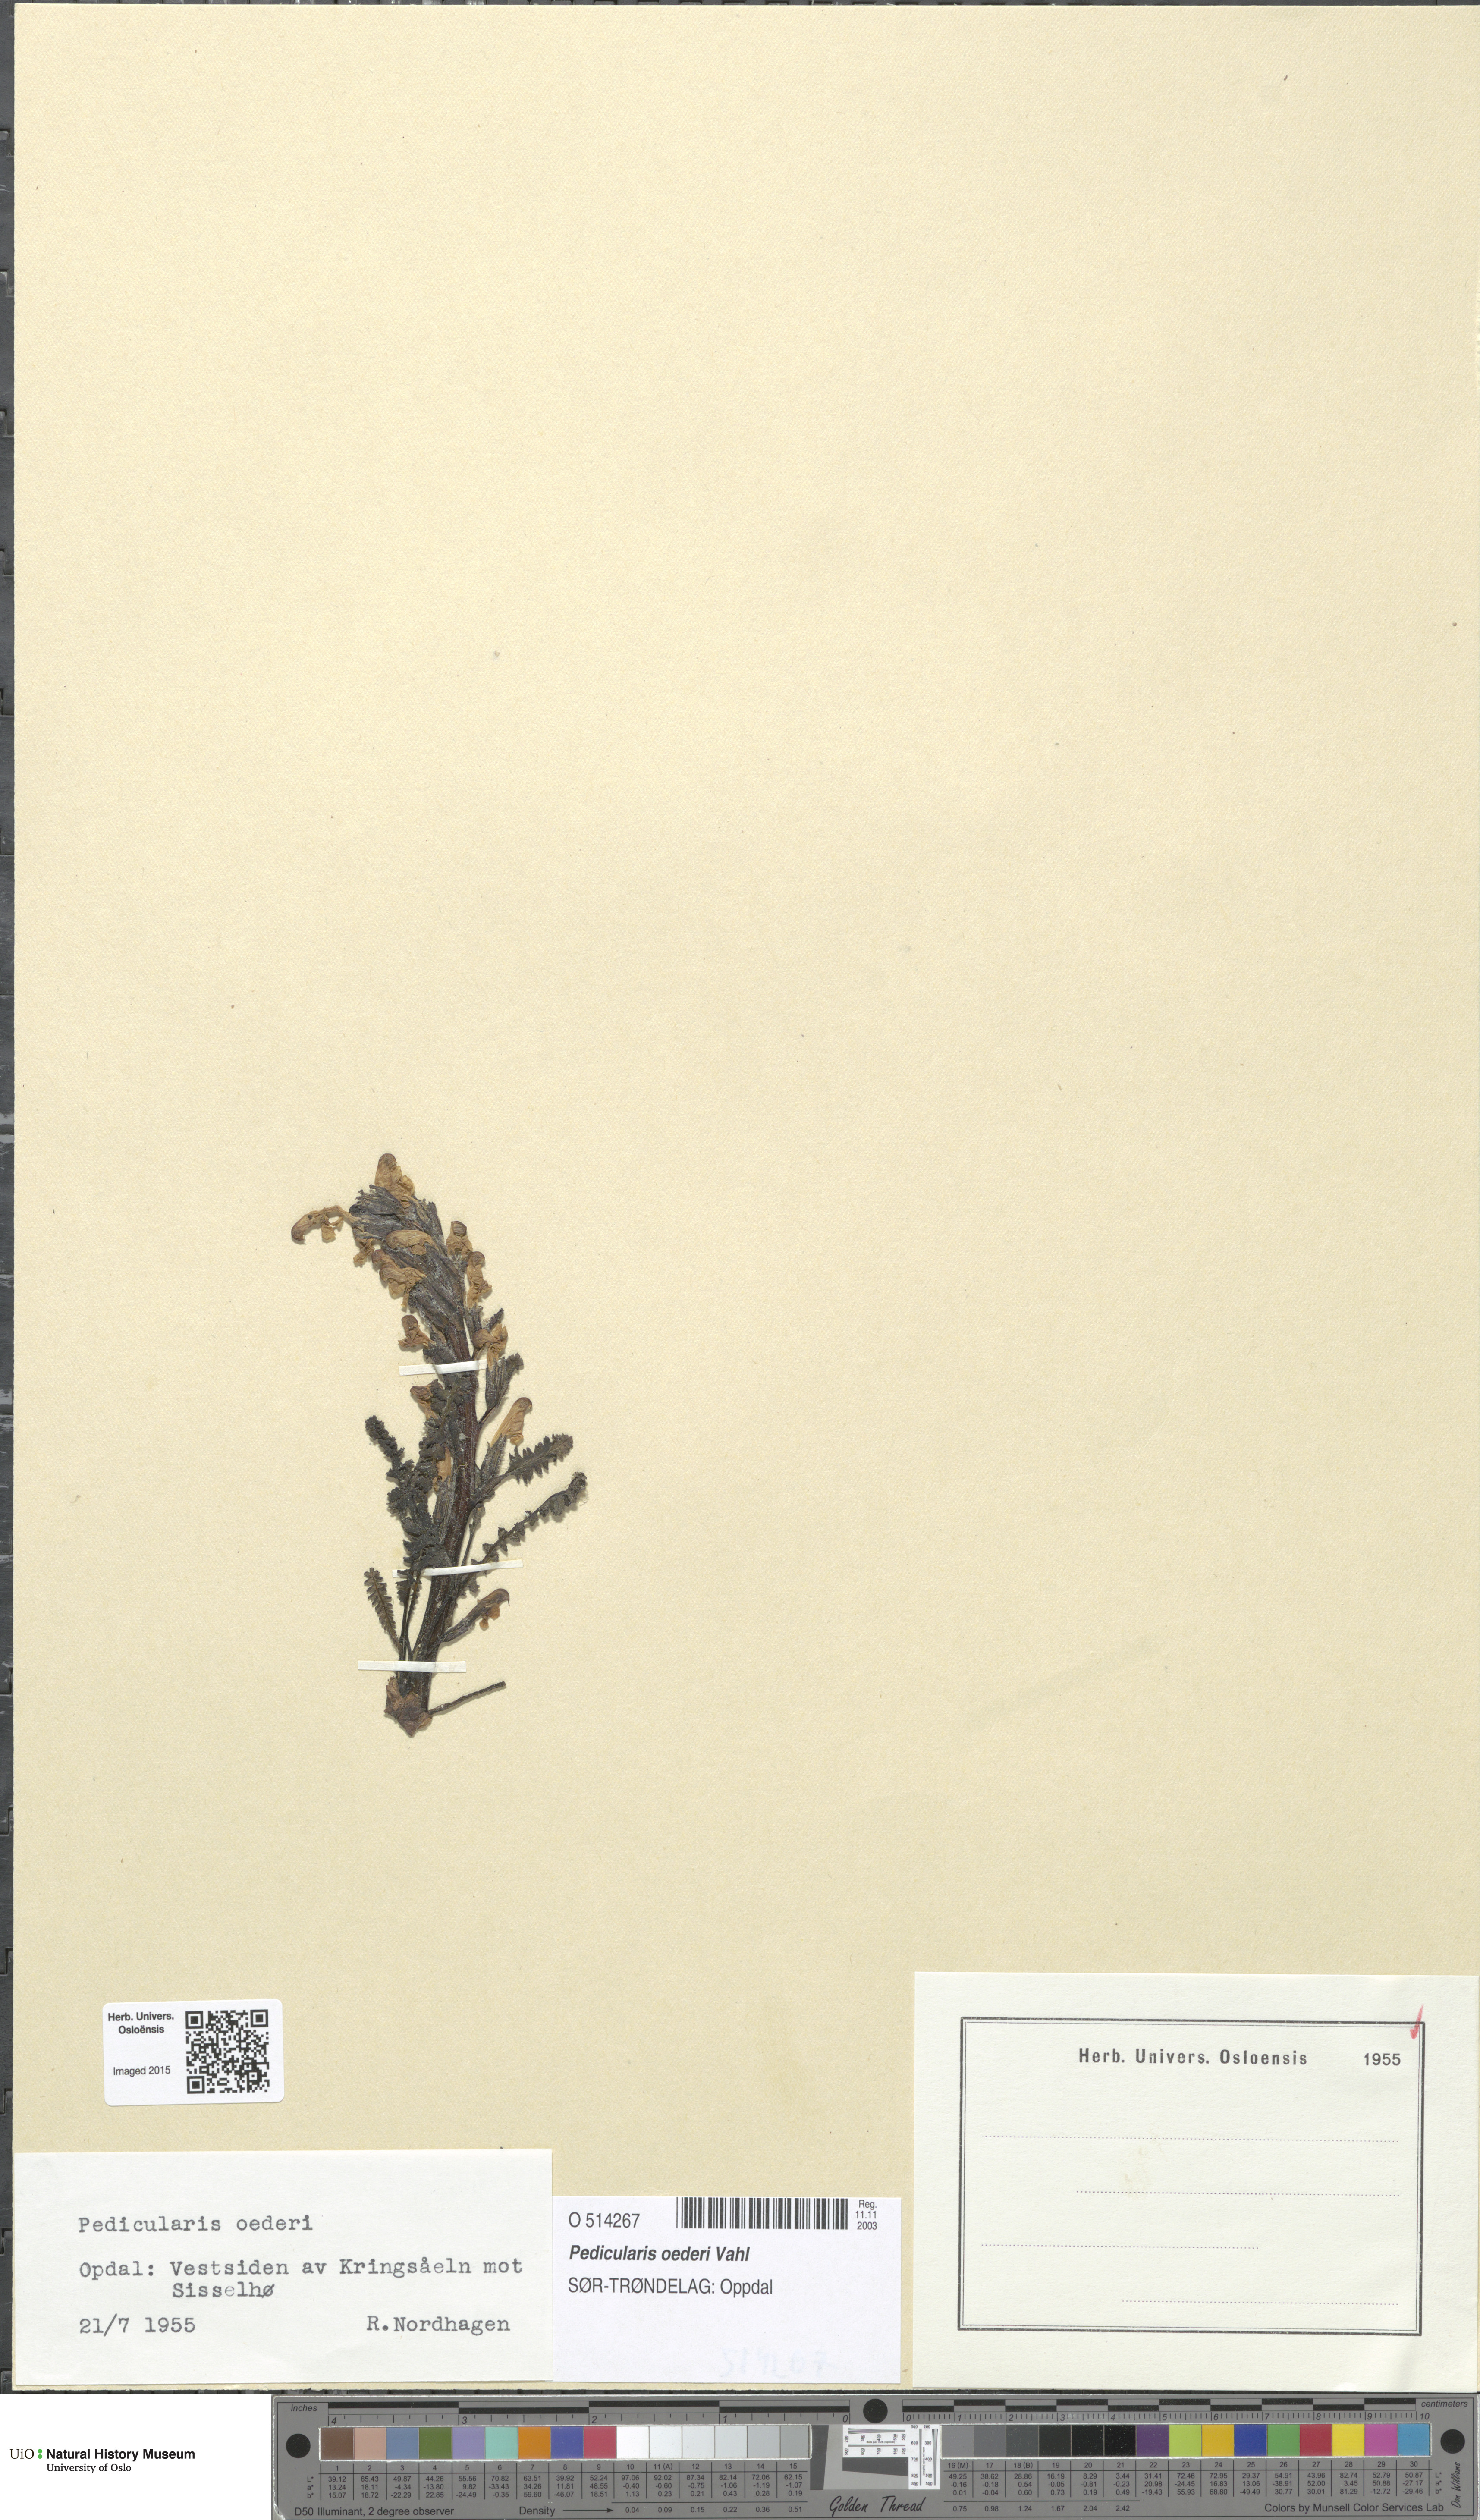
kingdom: Plantae
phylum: Tracheophyta
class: Magnoliopsida
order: Lamiales
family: Orobanchaceae
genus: Pedicularis
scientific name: Pedicularis oederi
